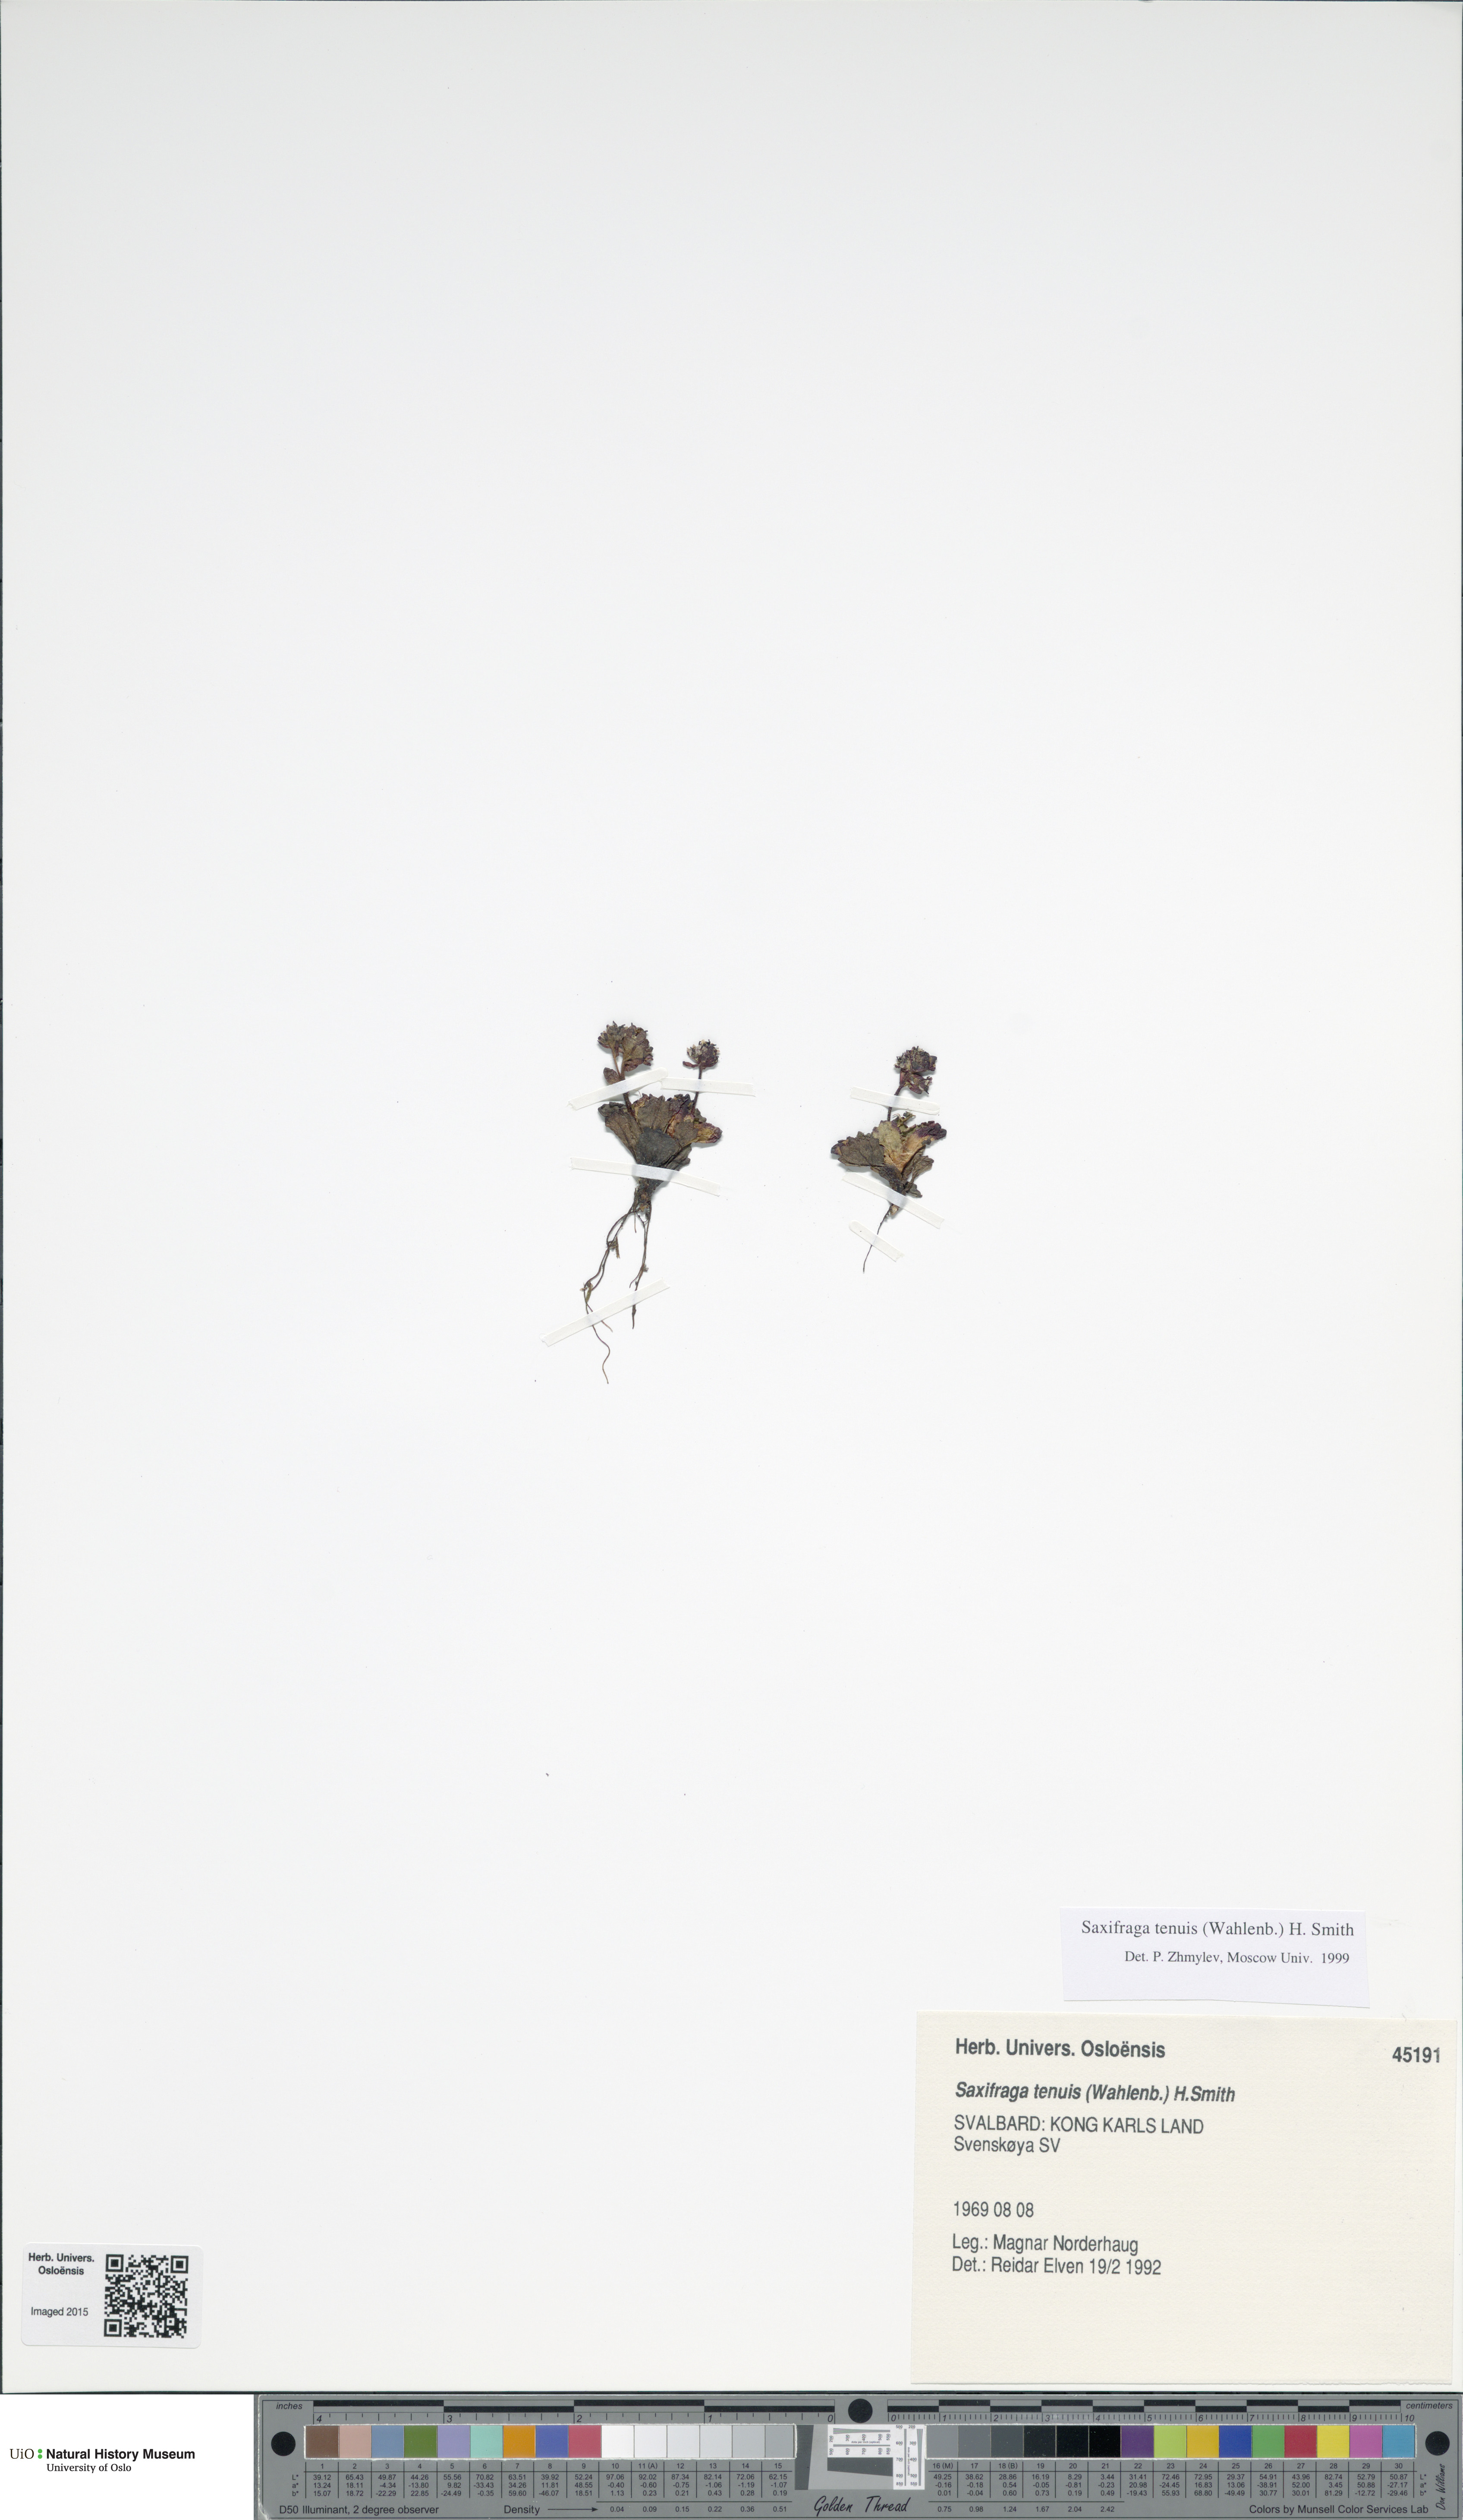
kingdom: Plantae
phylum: Tracheophyta
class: Magnoliopsida
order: Saxifragales
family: Saxifragaceae
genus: Micranthes
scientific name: Micranthes tenuis
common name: Ottertail pass saxifrage
